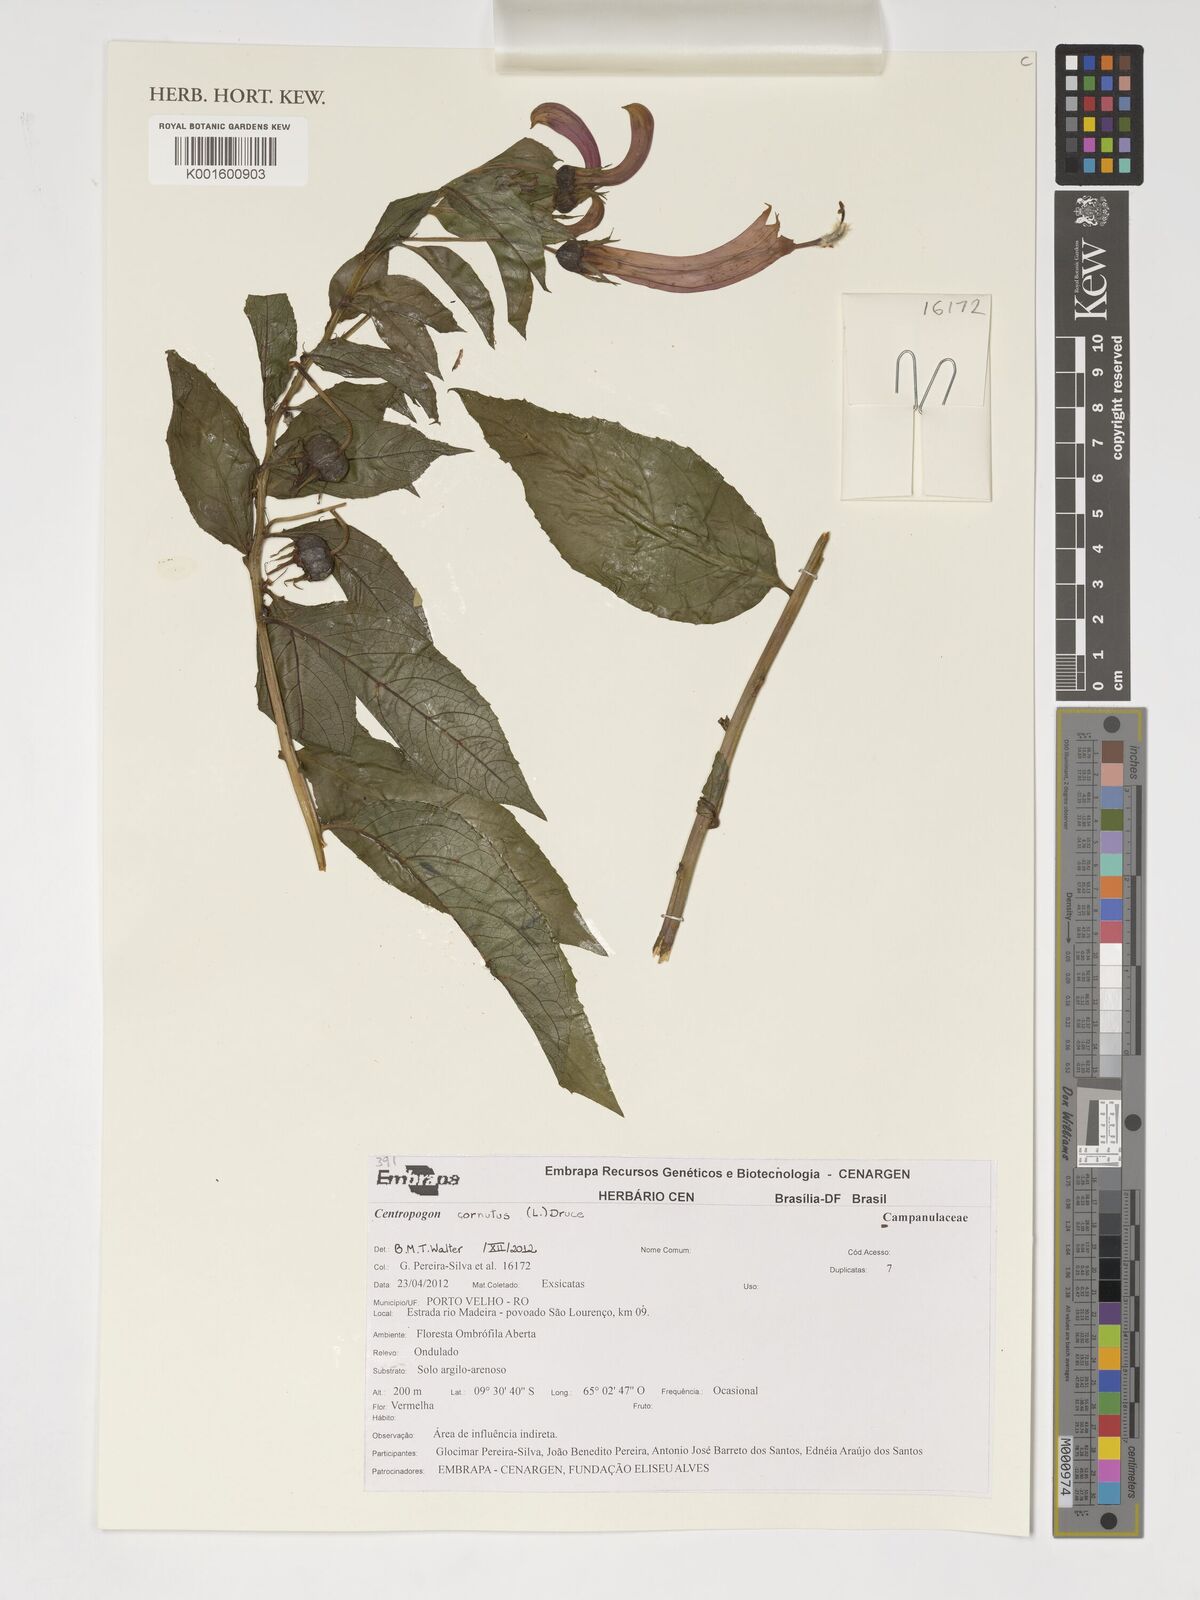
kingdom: Plantae
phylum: Tracheophyta
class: Magnoliopsida
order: Asterales
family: Campanulaceae
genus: Centropogon
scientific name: Centropogon cornutus
